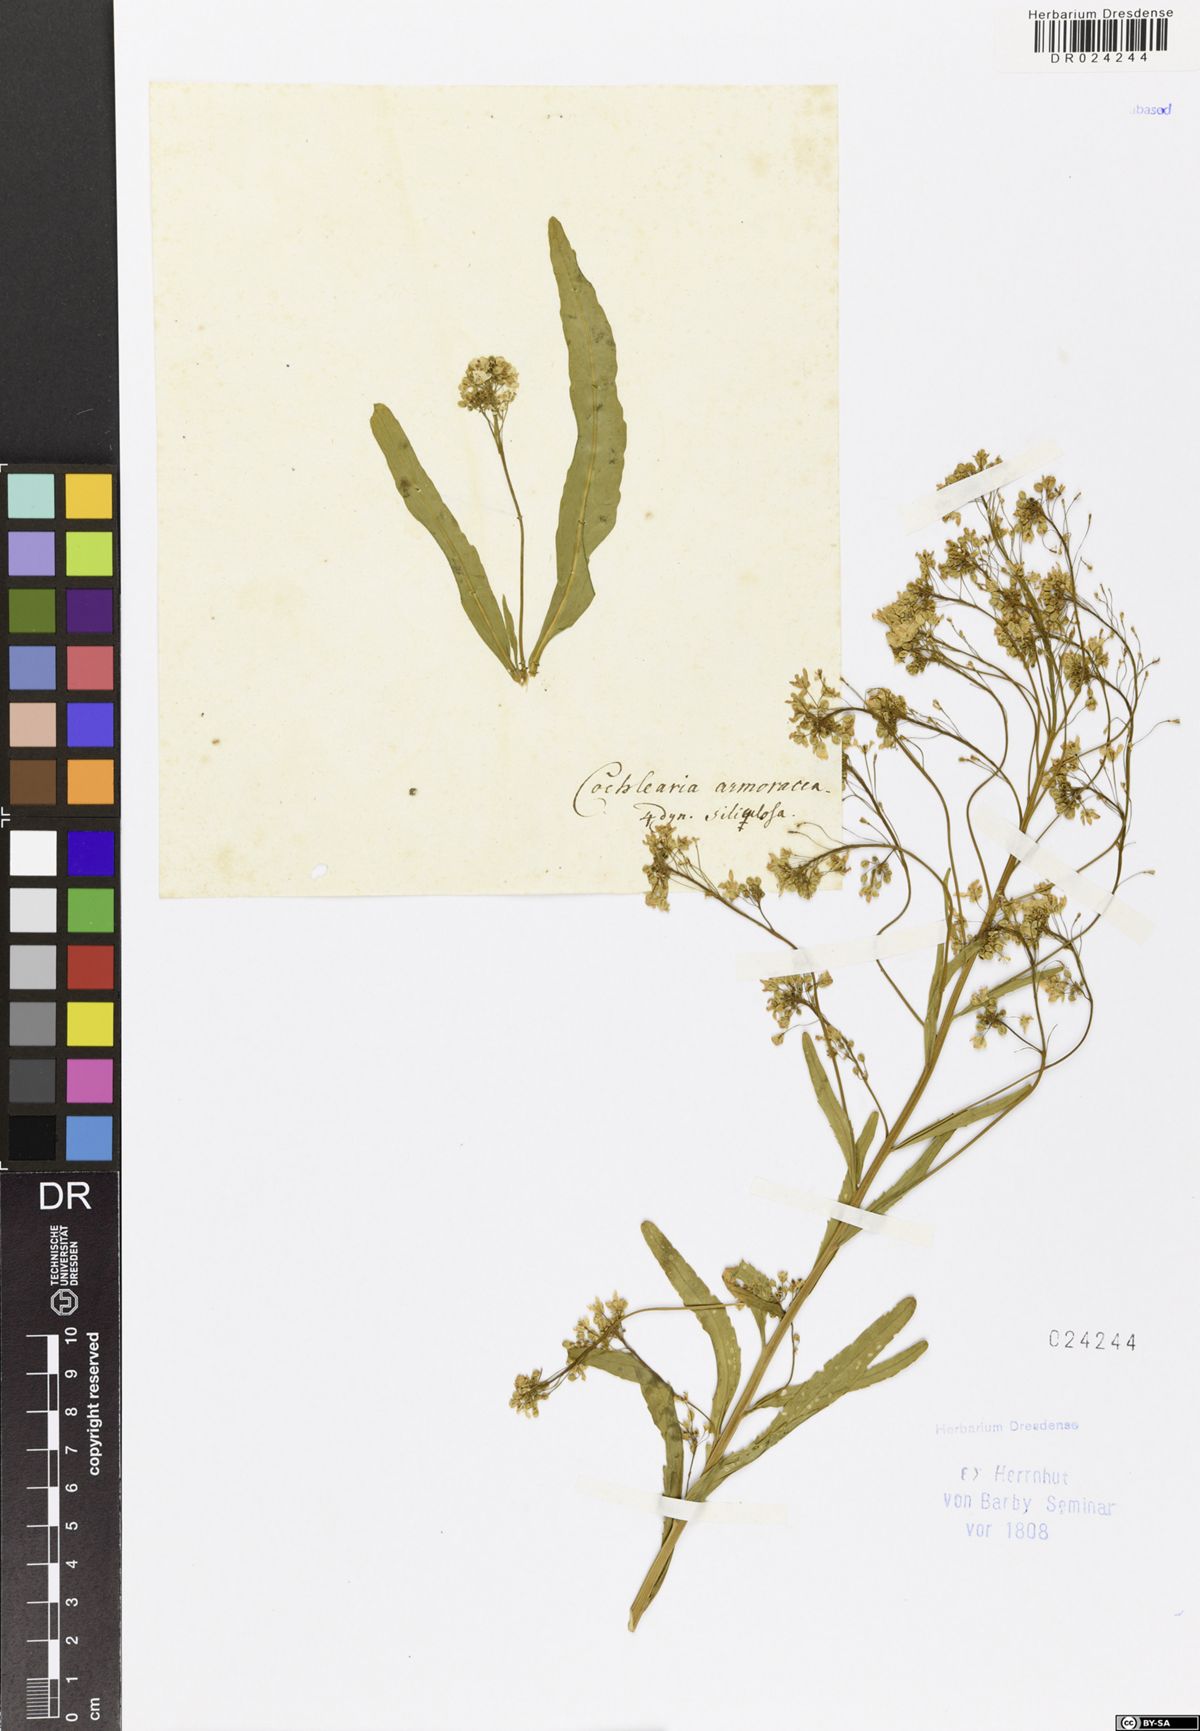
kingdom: Plantae
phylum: Tracheophyta
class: Magnoliopsida
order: Brassicales
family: Brassicaceae
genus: Armoracia
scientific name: Armoracia rusticana
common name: Horseradish
